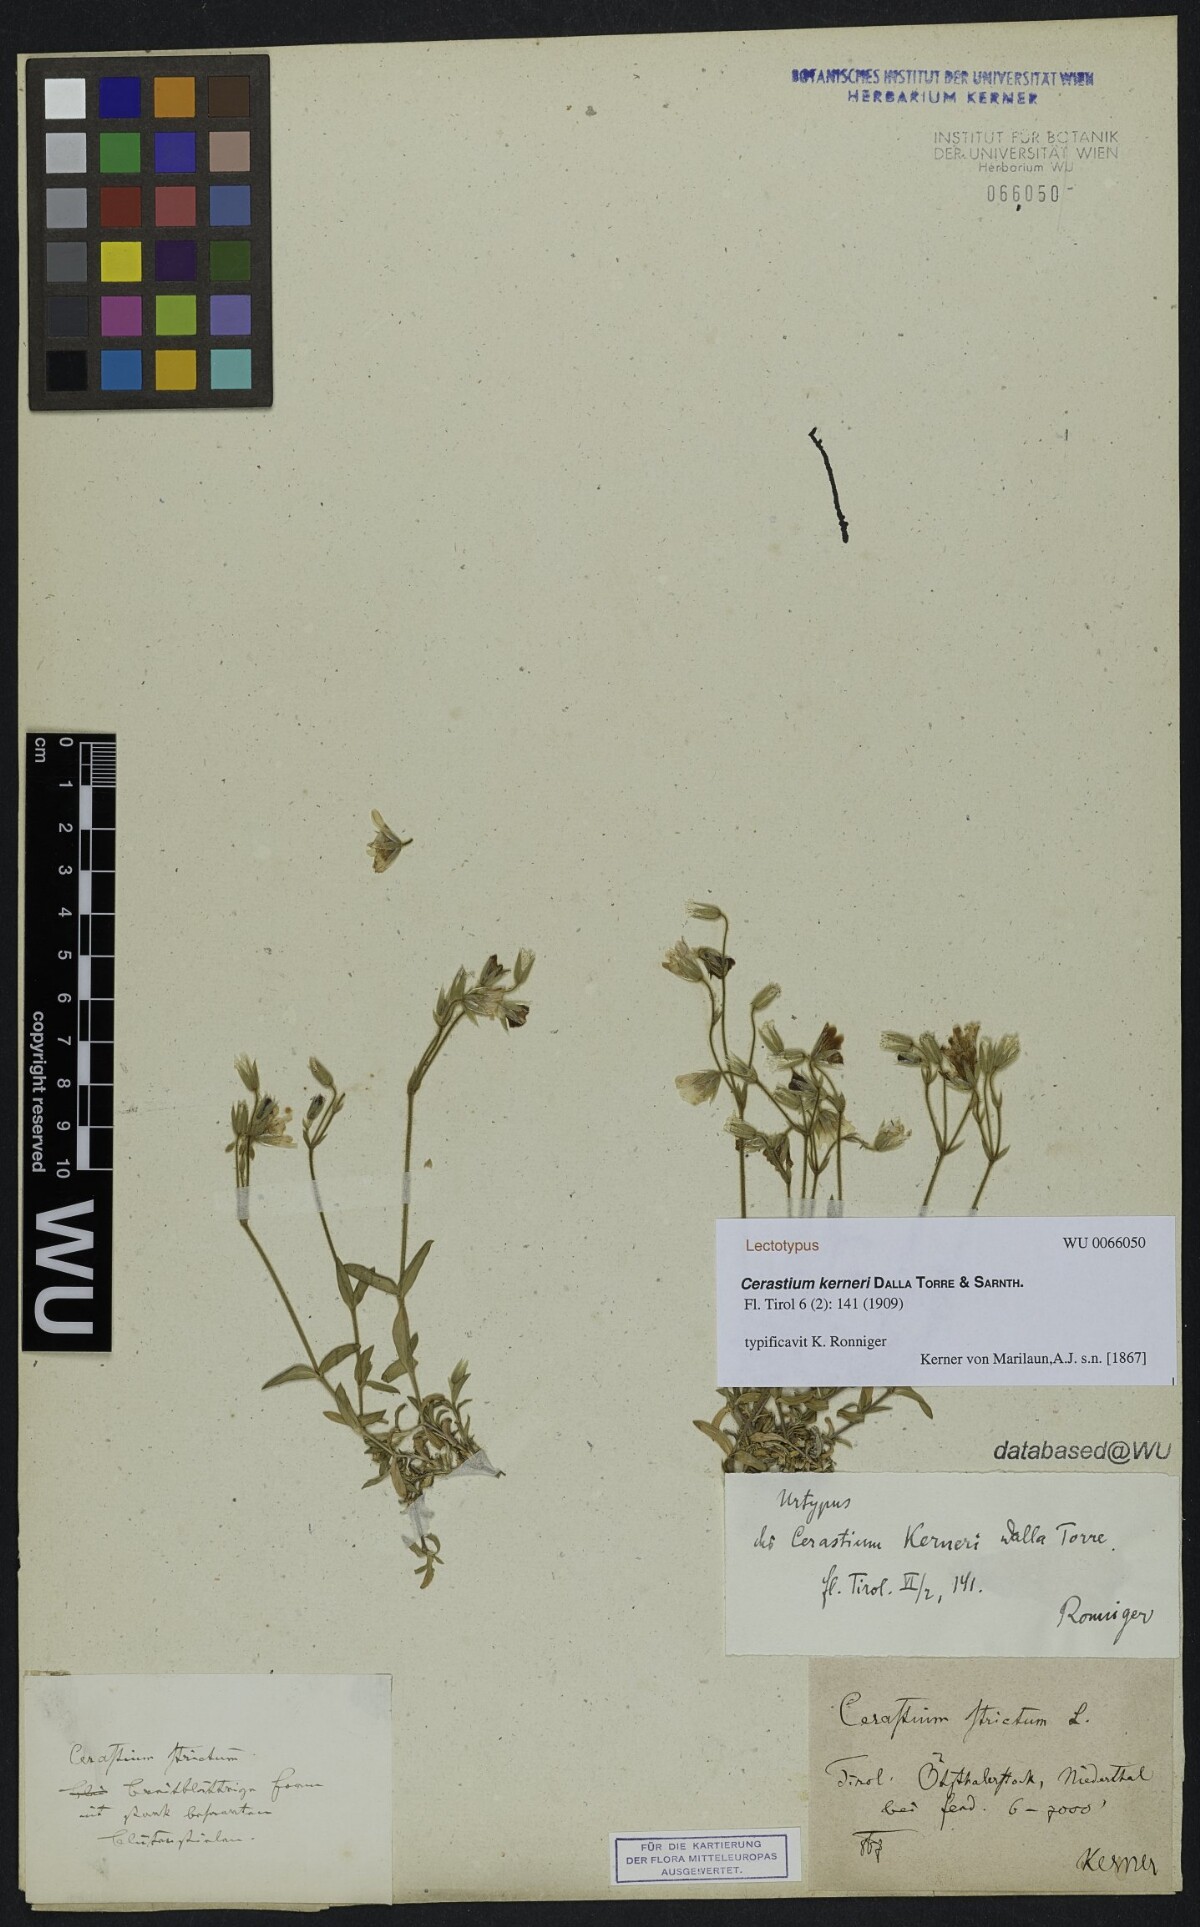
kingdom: Plantae
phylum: Tracheophyta
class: Magnoliopsida
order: Caryophyllales
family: Caryophyllaceae
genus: Cerastium
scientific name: Cerastium elongatum
